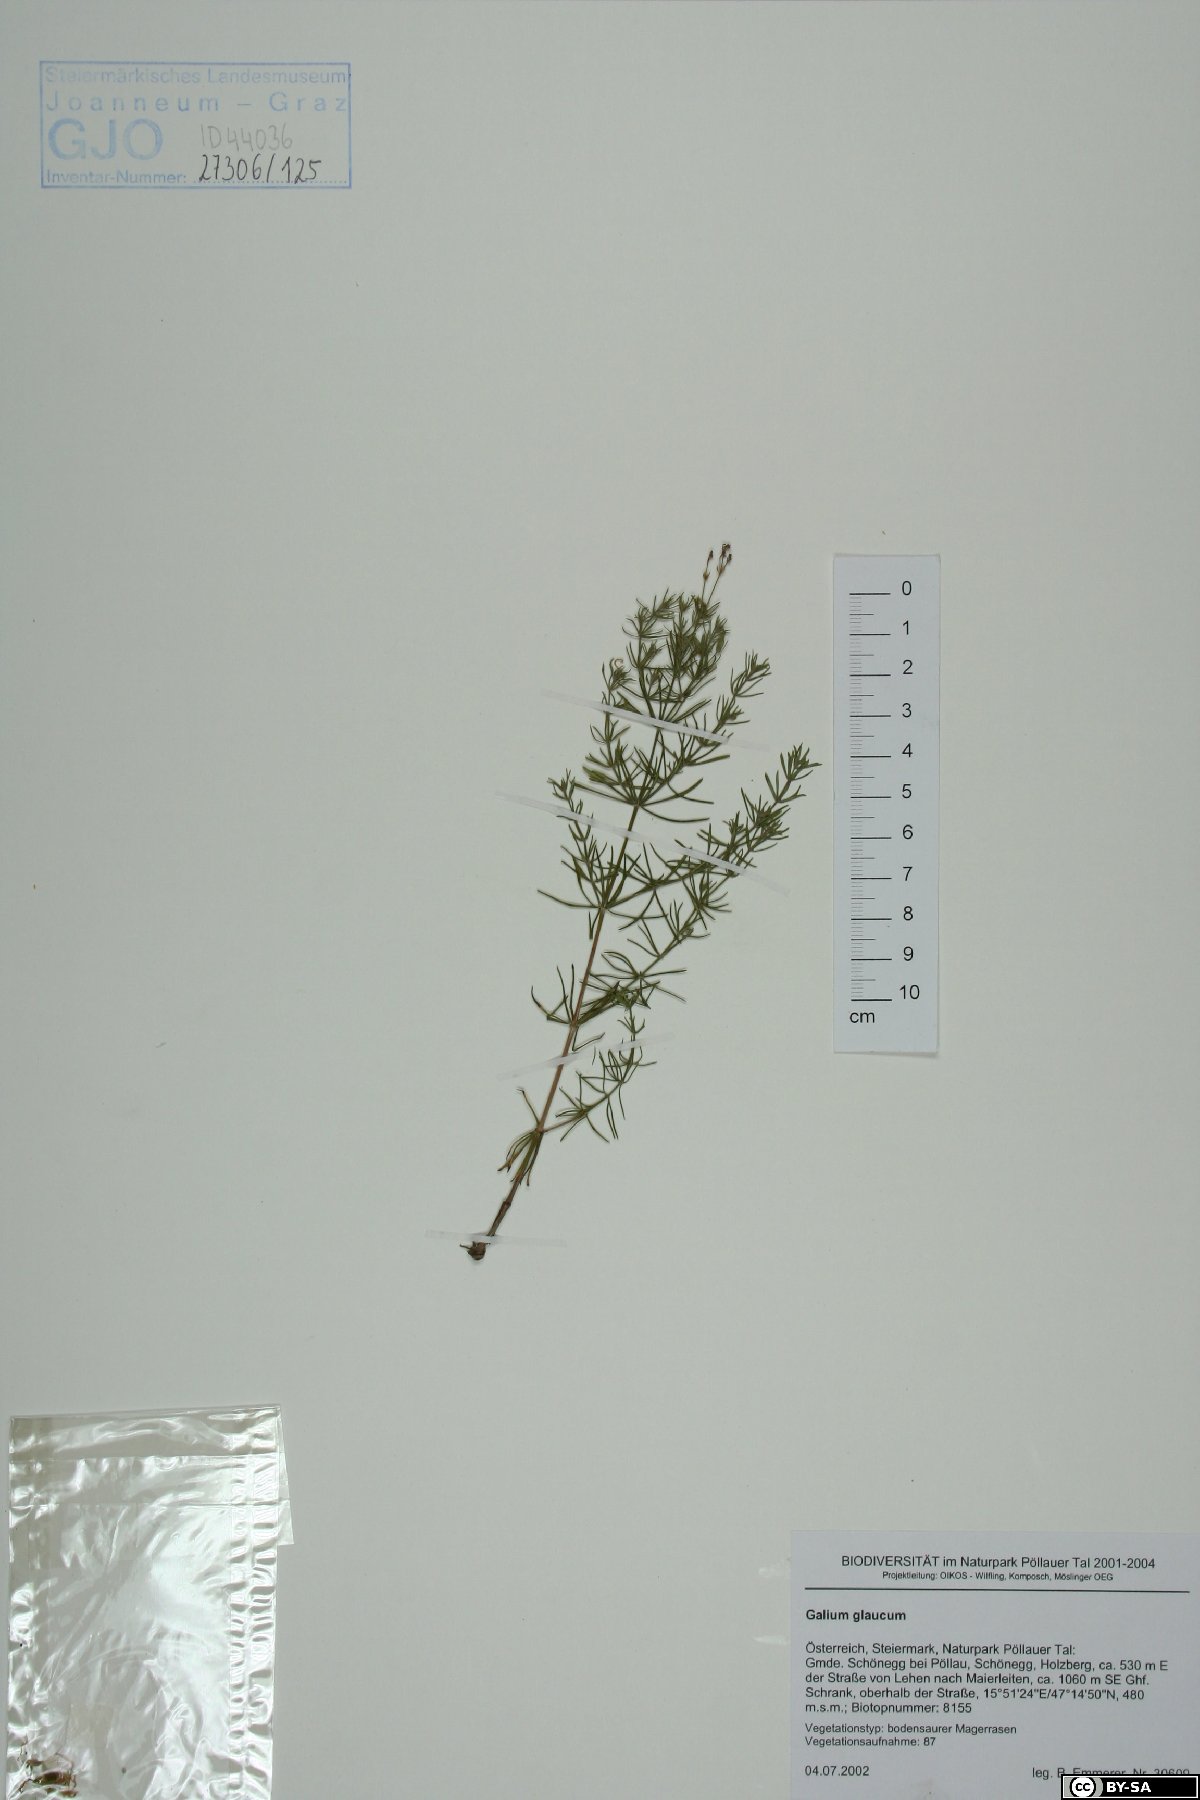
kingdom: Plantae
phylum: Tracheophyta
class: Magnoliopsida
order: Gentianales
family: Rubiaceae
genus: Galium
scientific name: Galium eruptivum
